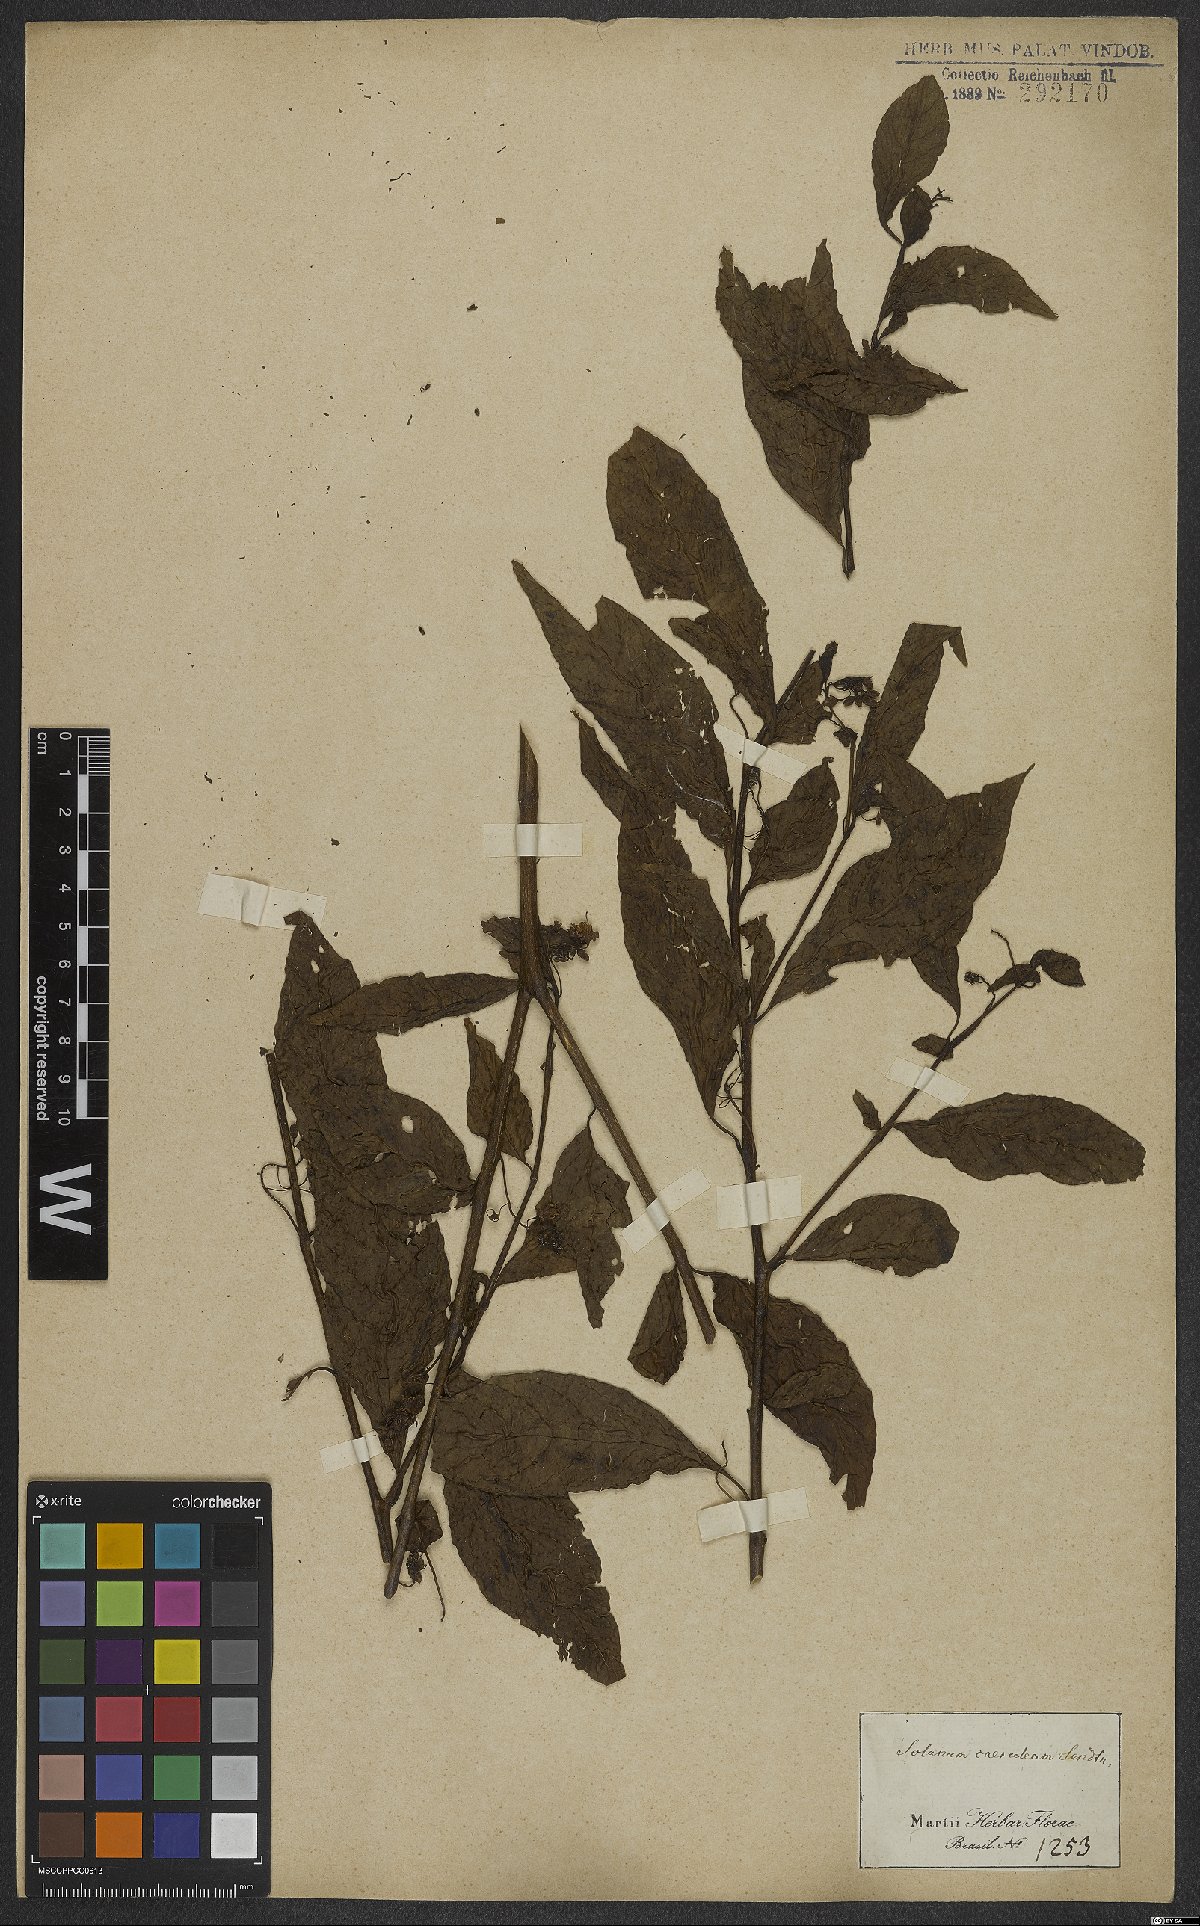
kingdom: Plantae
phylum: Tracheophyta
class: Magnoliopsida
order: Solanales
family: Solanaceae
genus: Solanum
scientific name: Solanum campaniforme
